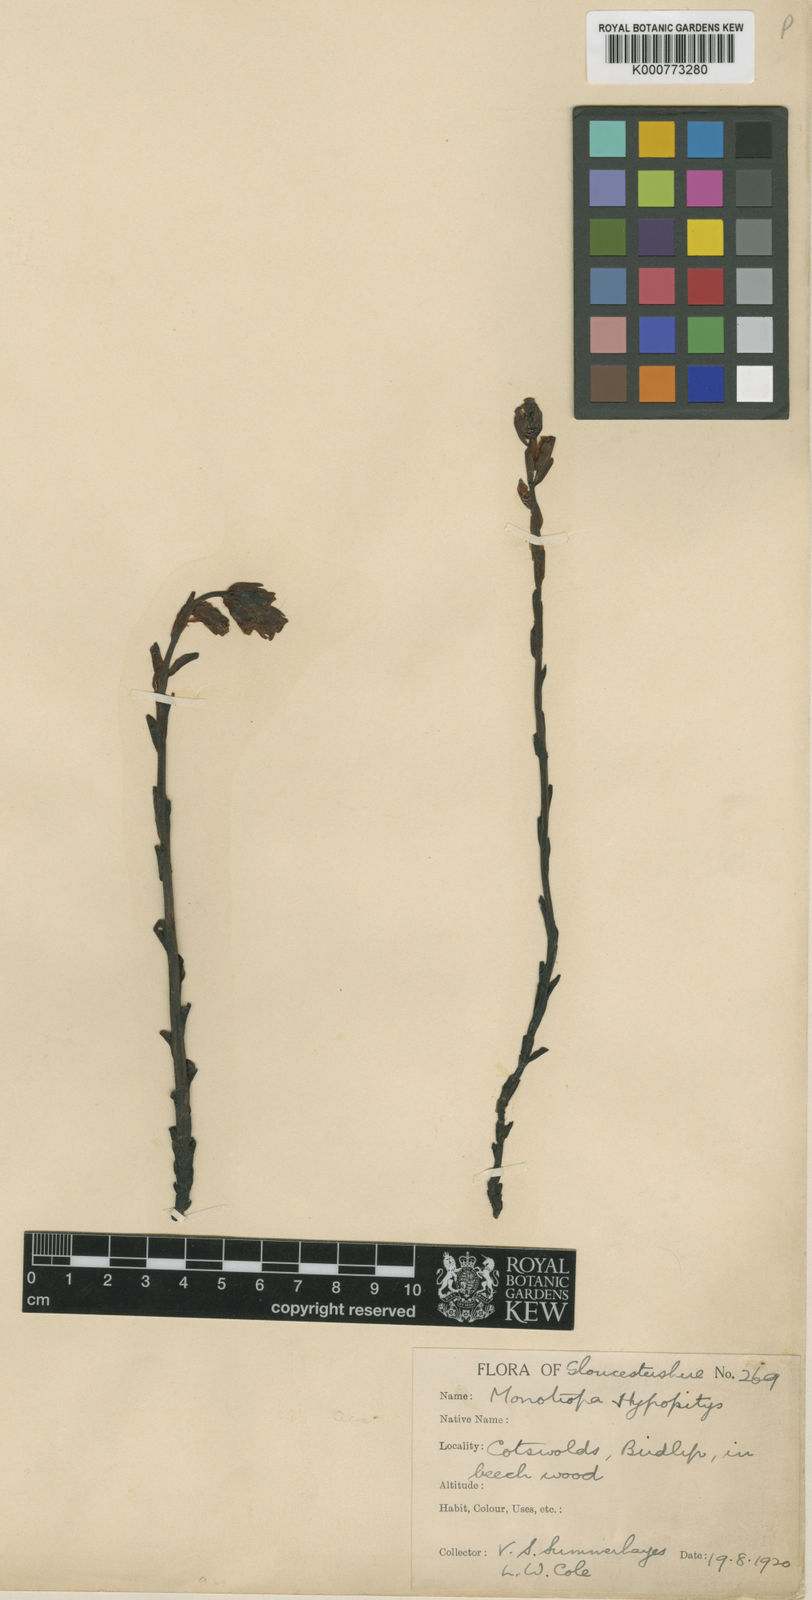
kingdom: Plantae
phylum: Tracheophyta
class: Magnoliopsida
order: Ericales
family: Ericaceae
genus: Monotropa
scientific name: Monotropa
